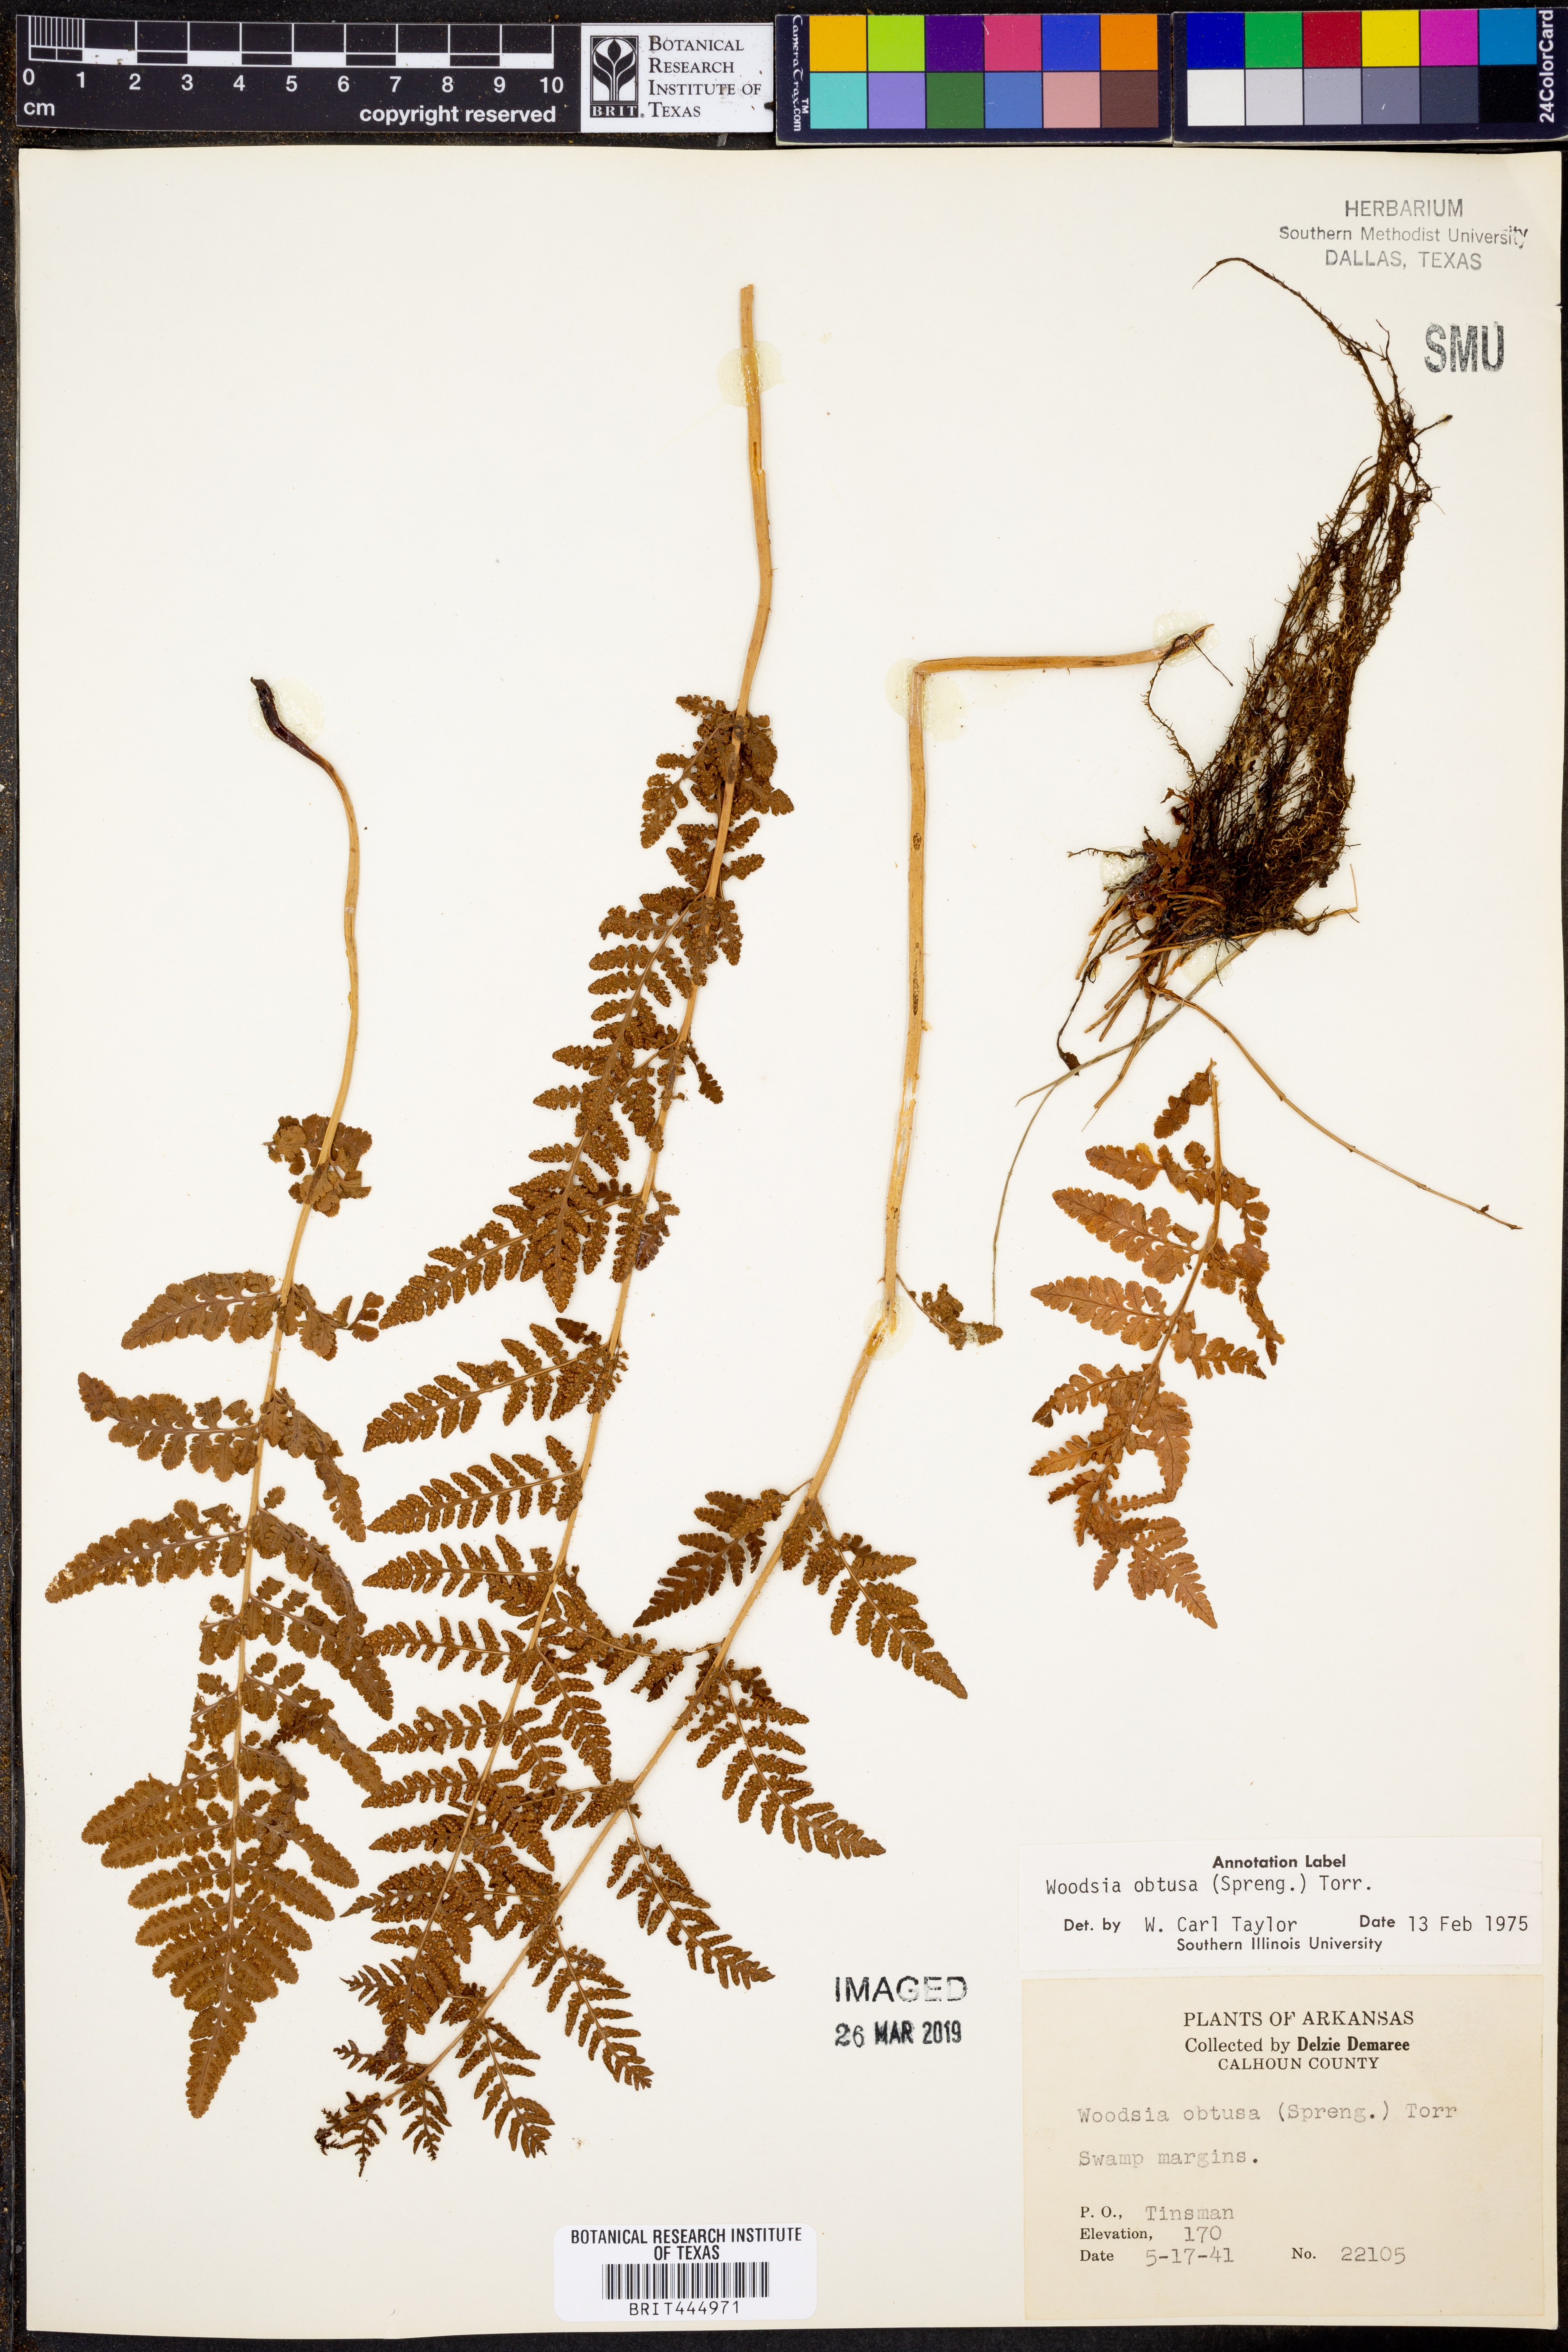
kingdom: Plantae
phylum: Tracheophyta
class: Polypodiopsida
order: Polypodiales
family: Woodsiaceae
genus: Physematium
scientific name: Physematium obtusum
